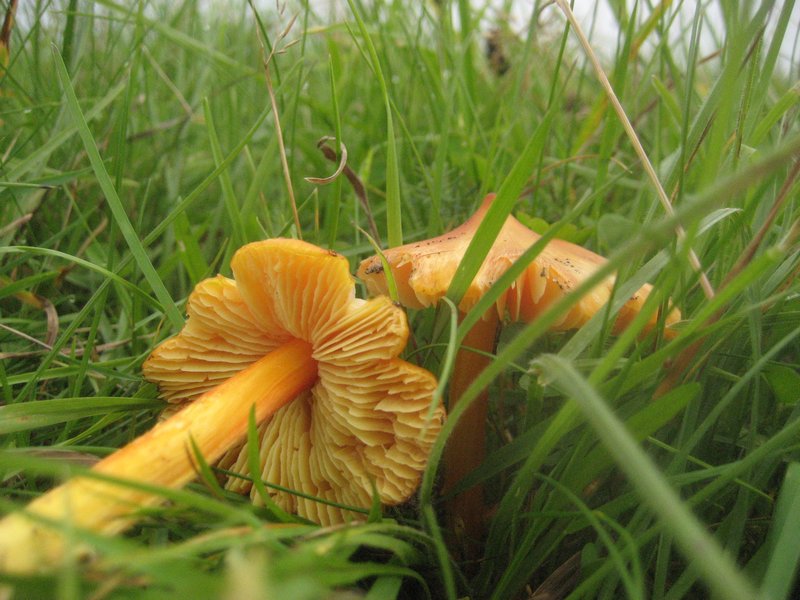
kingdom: Fungi
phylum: Basidiomycota
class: Agaricomycetes
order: Agaricales
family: Hygrophoraceae
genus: Hygrocybe
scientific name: Hygrocybe acutoconica
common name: spidspuklet vokshat
